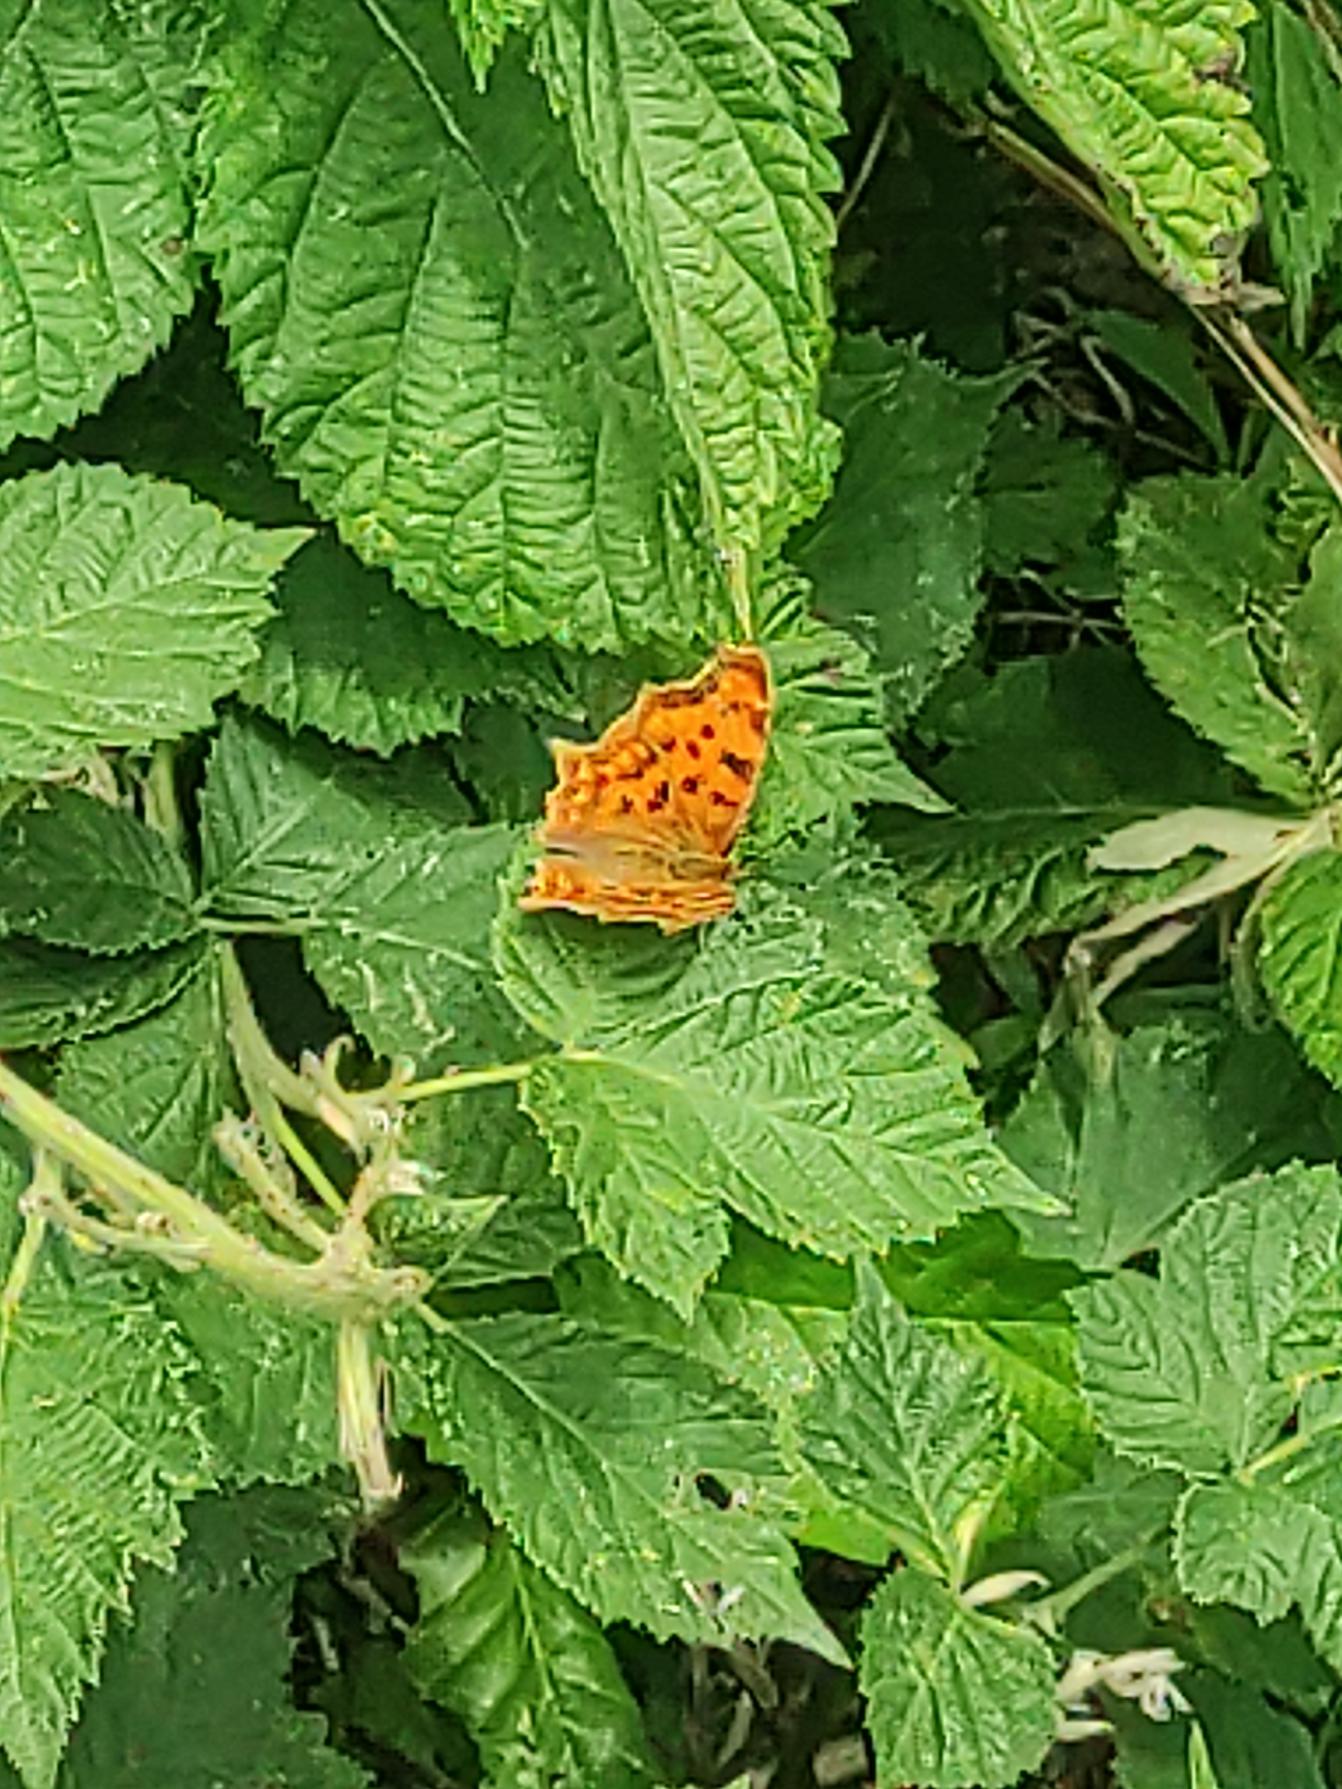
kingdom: Animalia
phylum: Arthropoda
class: Insecta
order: Lepidoptera
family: Nymphalidae
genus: Polygonia
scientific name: Polygonia c-album
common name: Det hvide C
